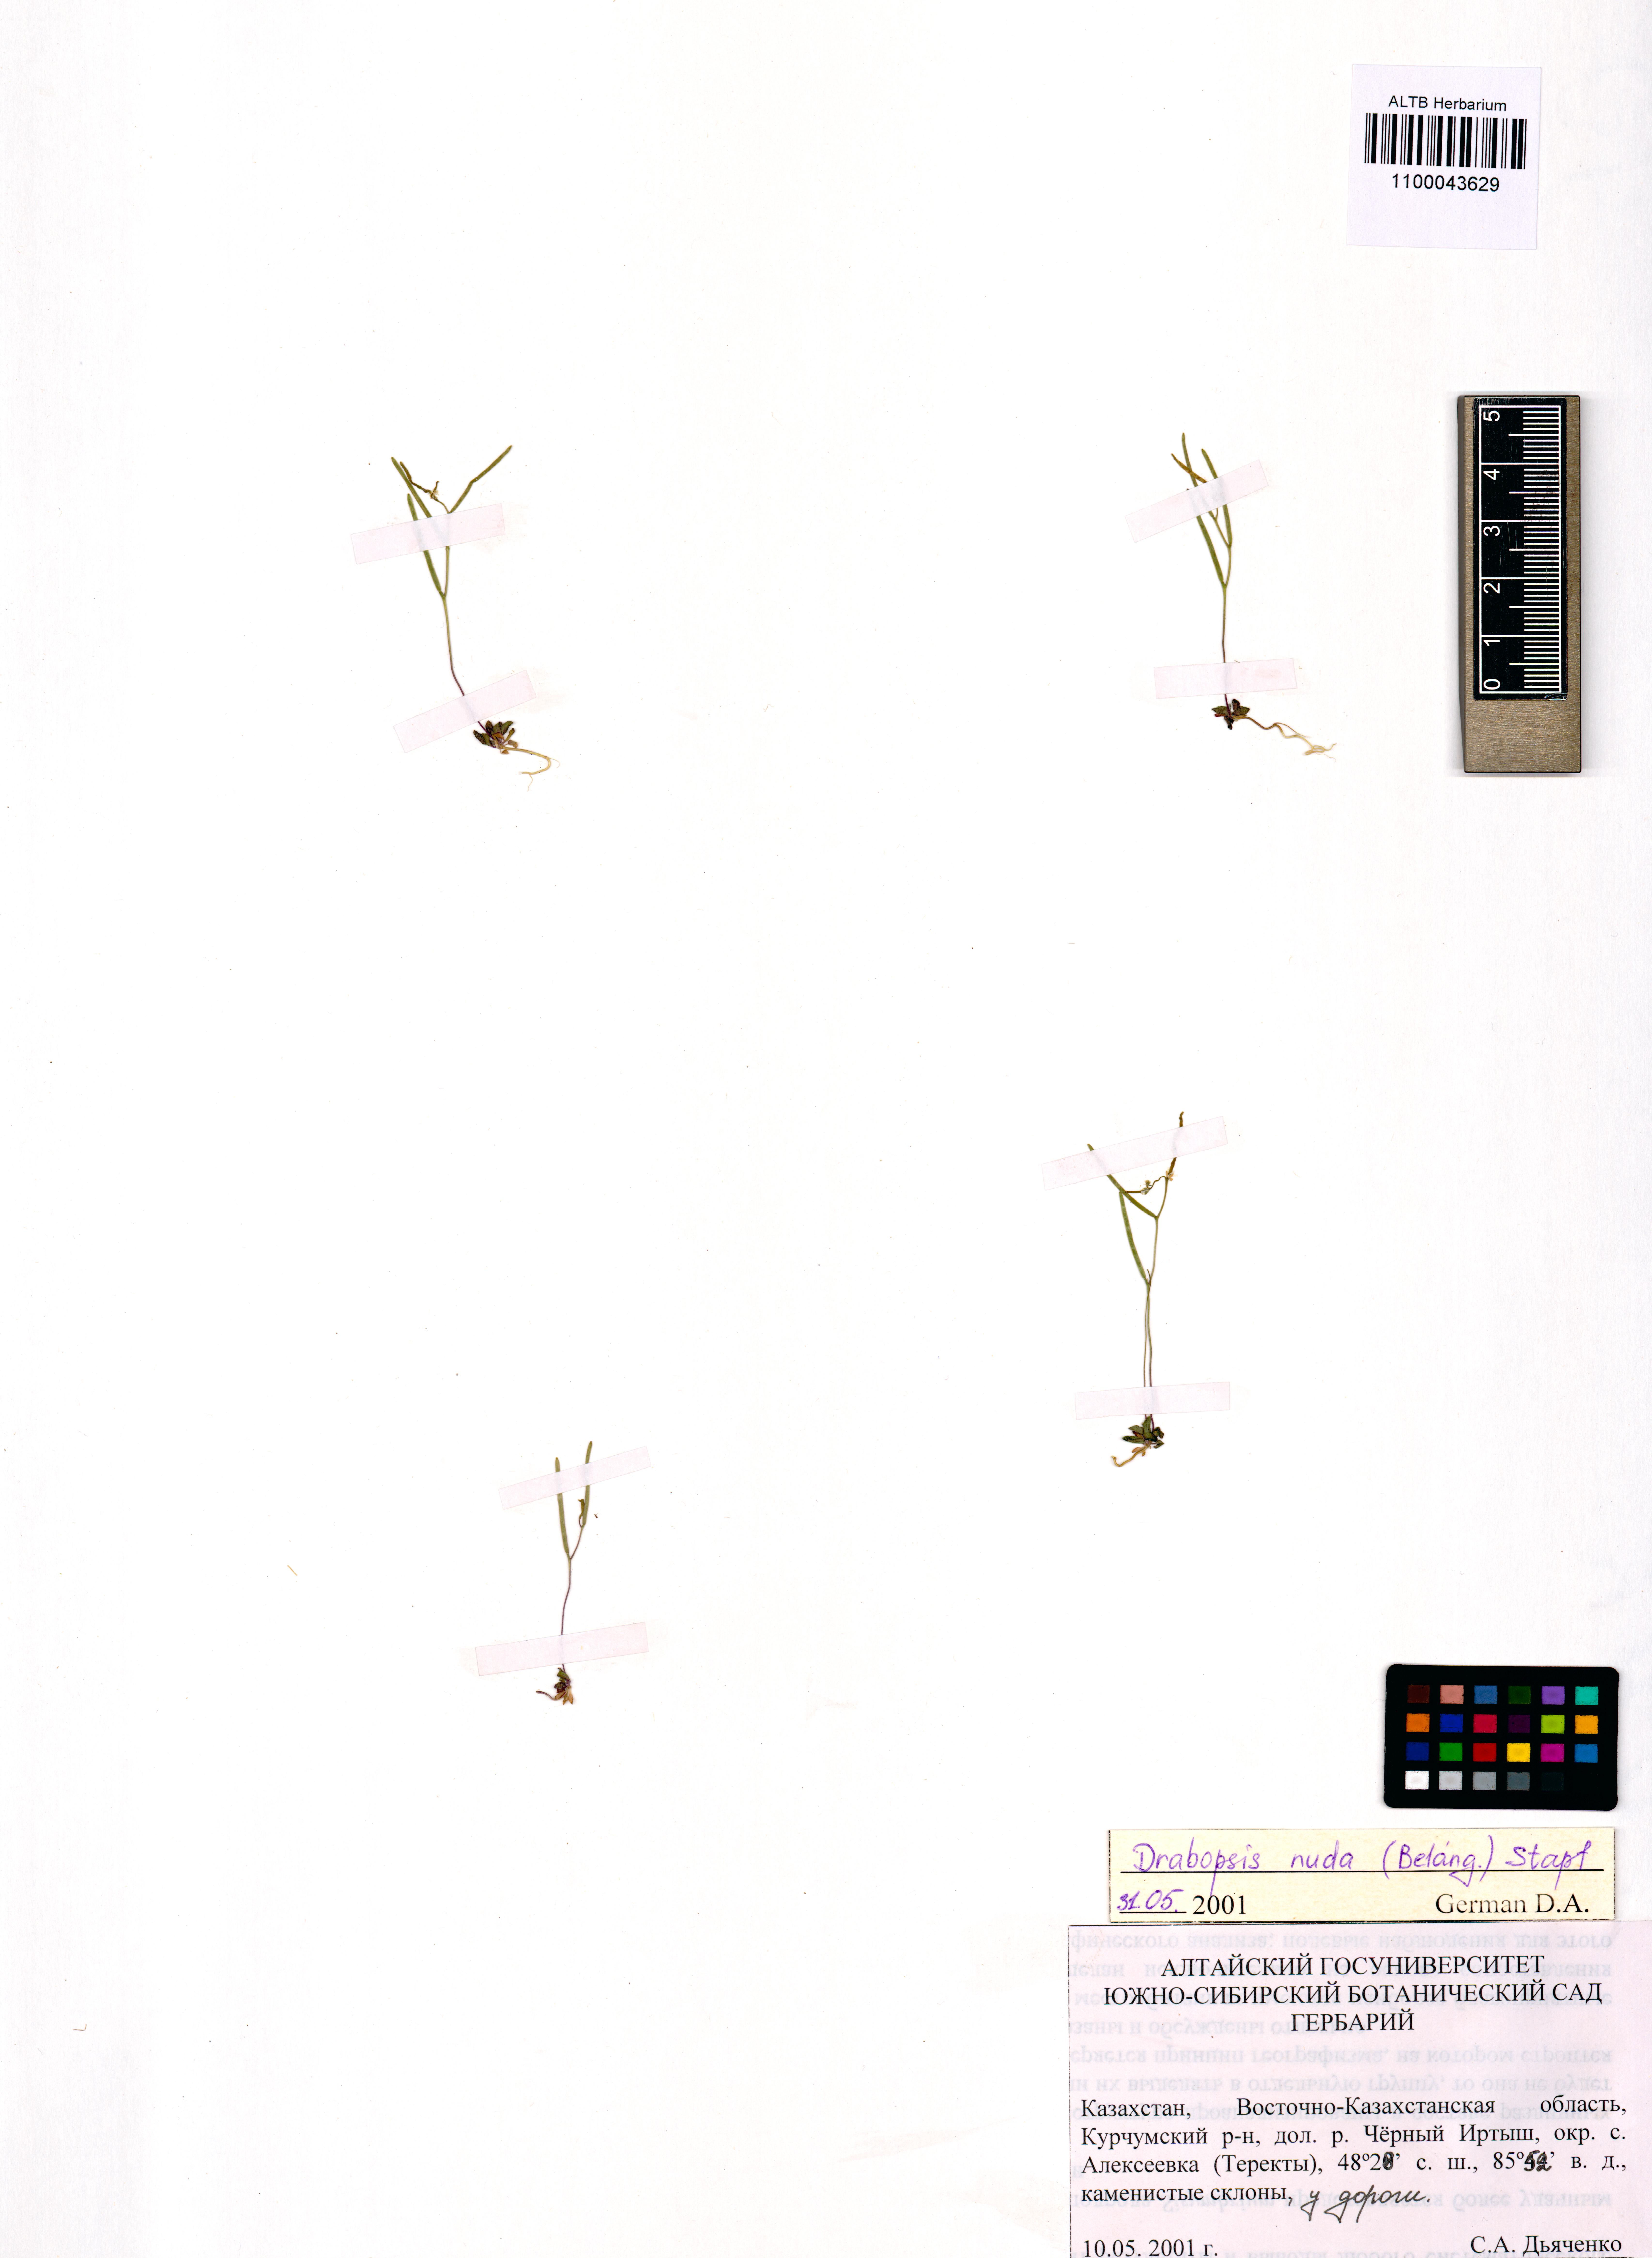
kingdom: Plantae
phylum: Tracheophyta
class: Magnoliopsida
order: Brassicales
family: Brassicaceae
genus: Draba
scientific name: Draba nuda
